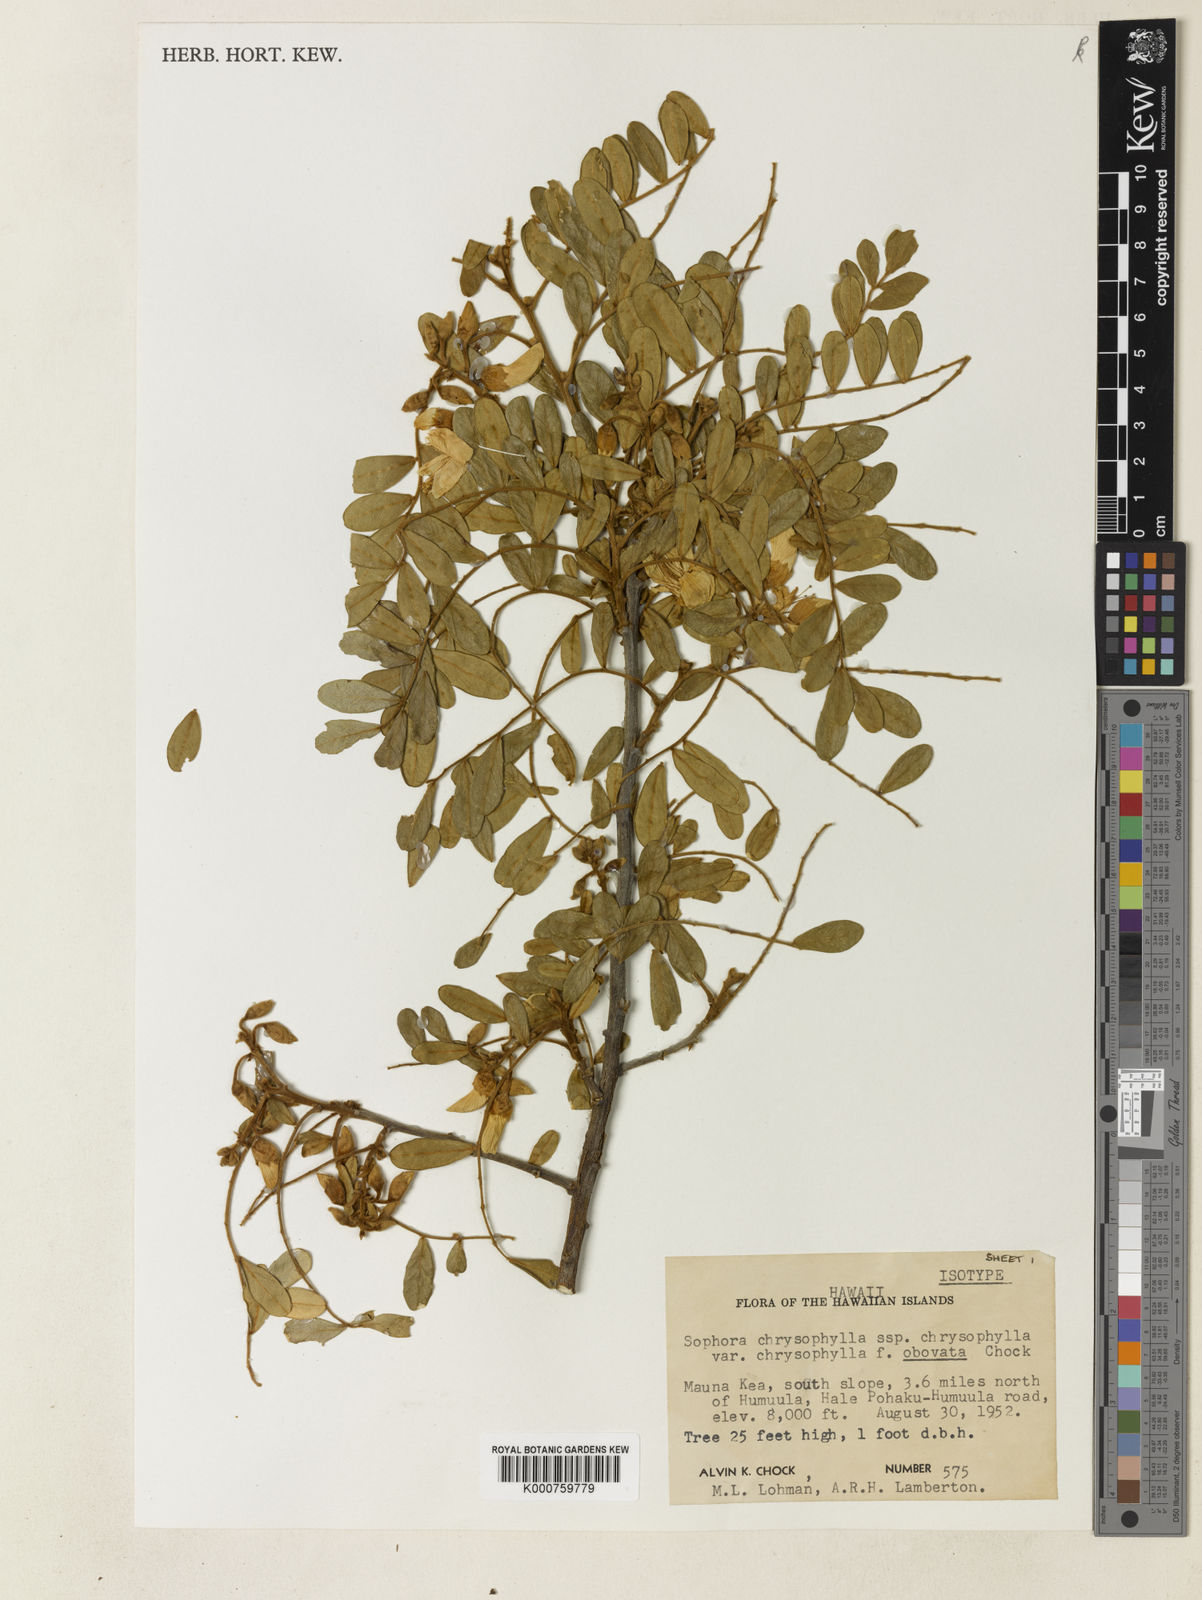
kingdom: Plantae
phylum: Tracheophyta
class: Magnoliopsida
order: Fabales
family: Fabaceae
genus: Sophora
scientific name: Sophora chrysophylla
